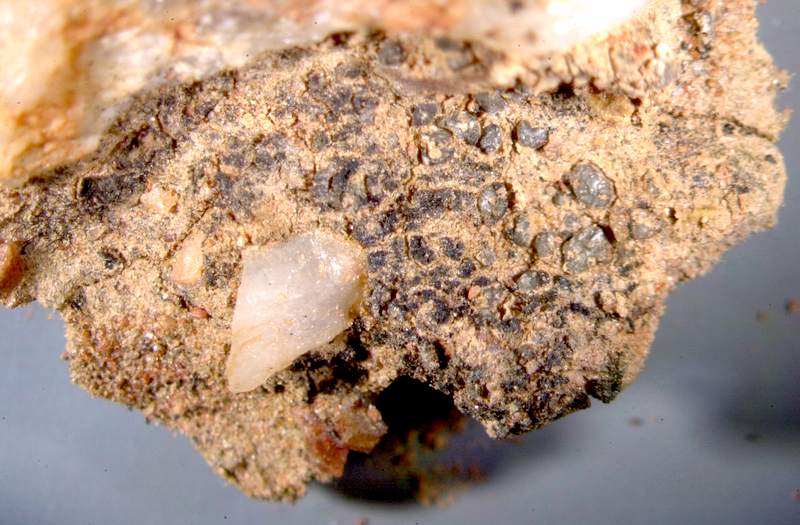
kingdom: Fungi
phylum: Ascomycota
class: Lichinomycetes
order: Lichinales
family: Lichinaceae
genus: Lichinella
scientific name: Lichinella stipatula
